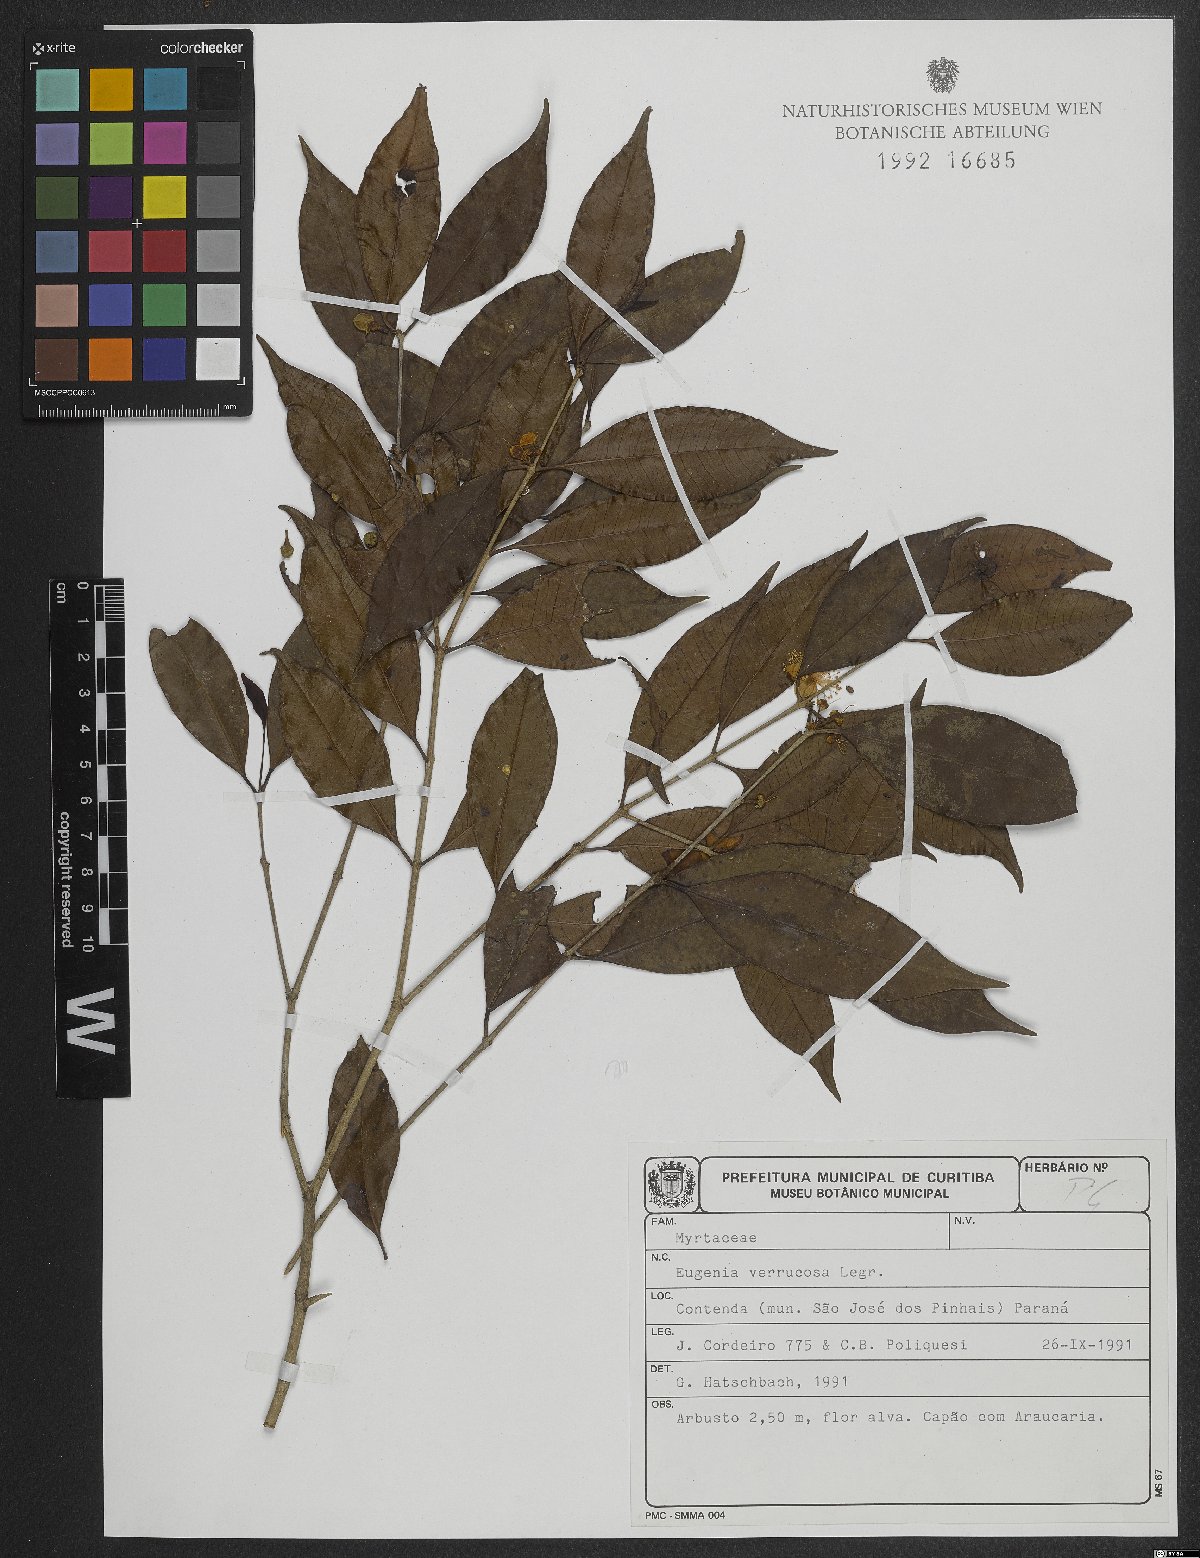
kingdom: Plantae
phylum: Tracheophyta
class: Magnoliopsida
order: Myrtales
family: Myrtaceae
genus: Eugenia
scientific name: Eugenia neoverrucosa
